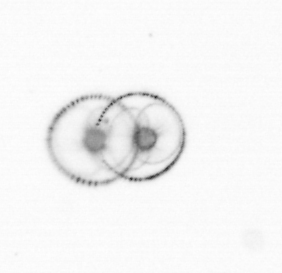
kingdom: Chromista
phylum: Myzozoa
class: Dinophyceae
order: Noctilucales
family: Noctilucaceae
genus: Noctiluca
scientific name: Noctiluca scintillans
